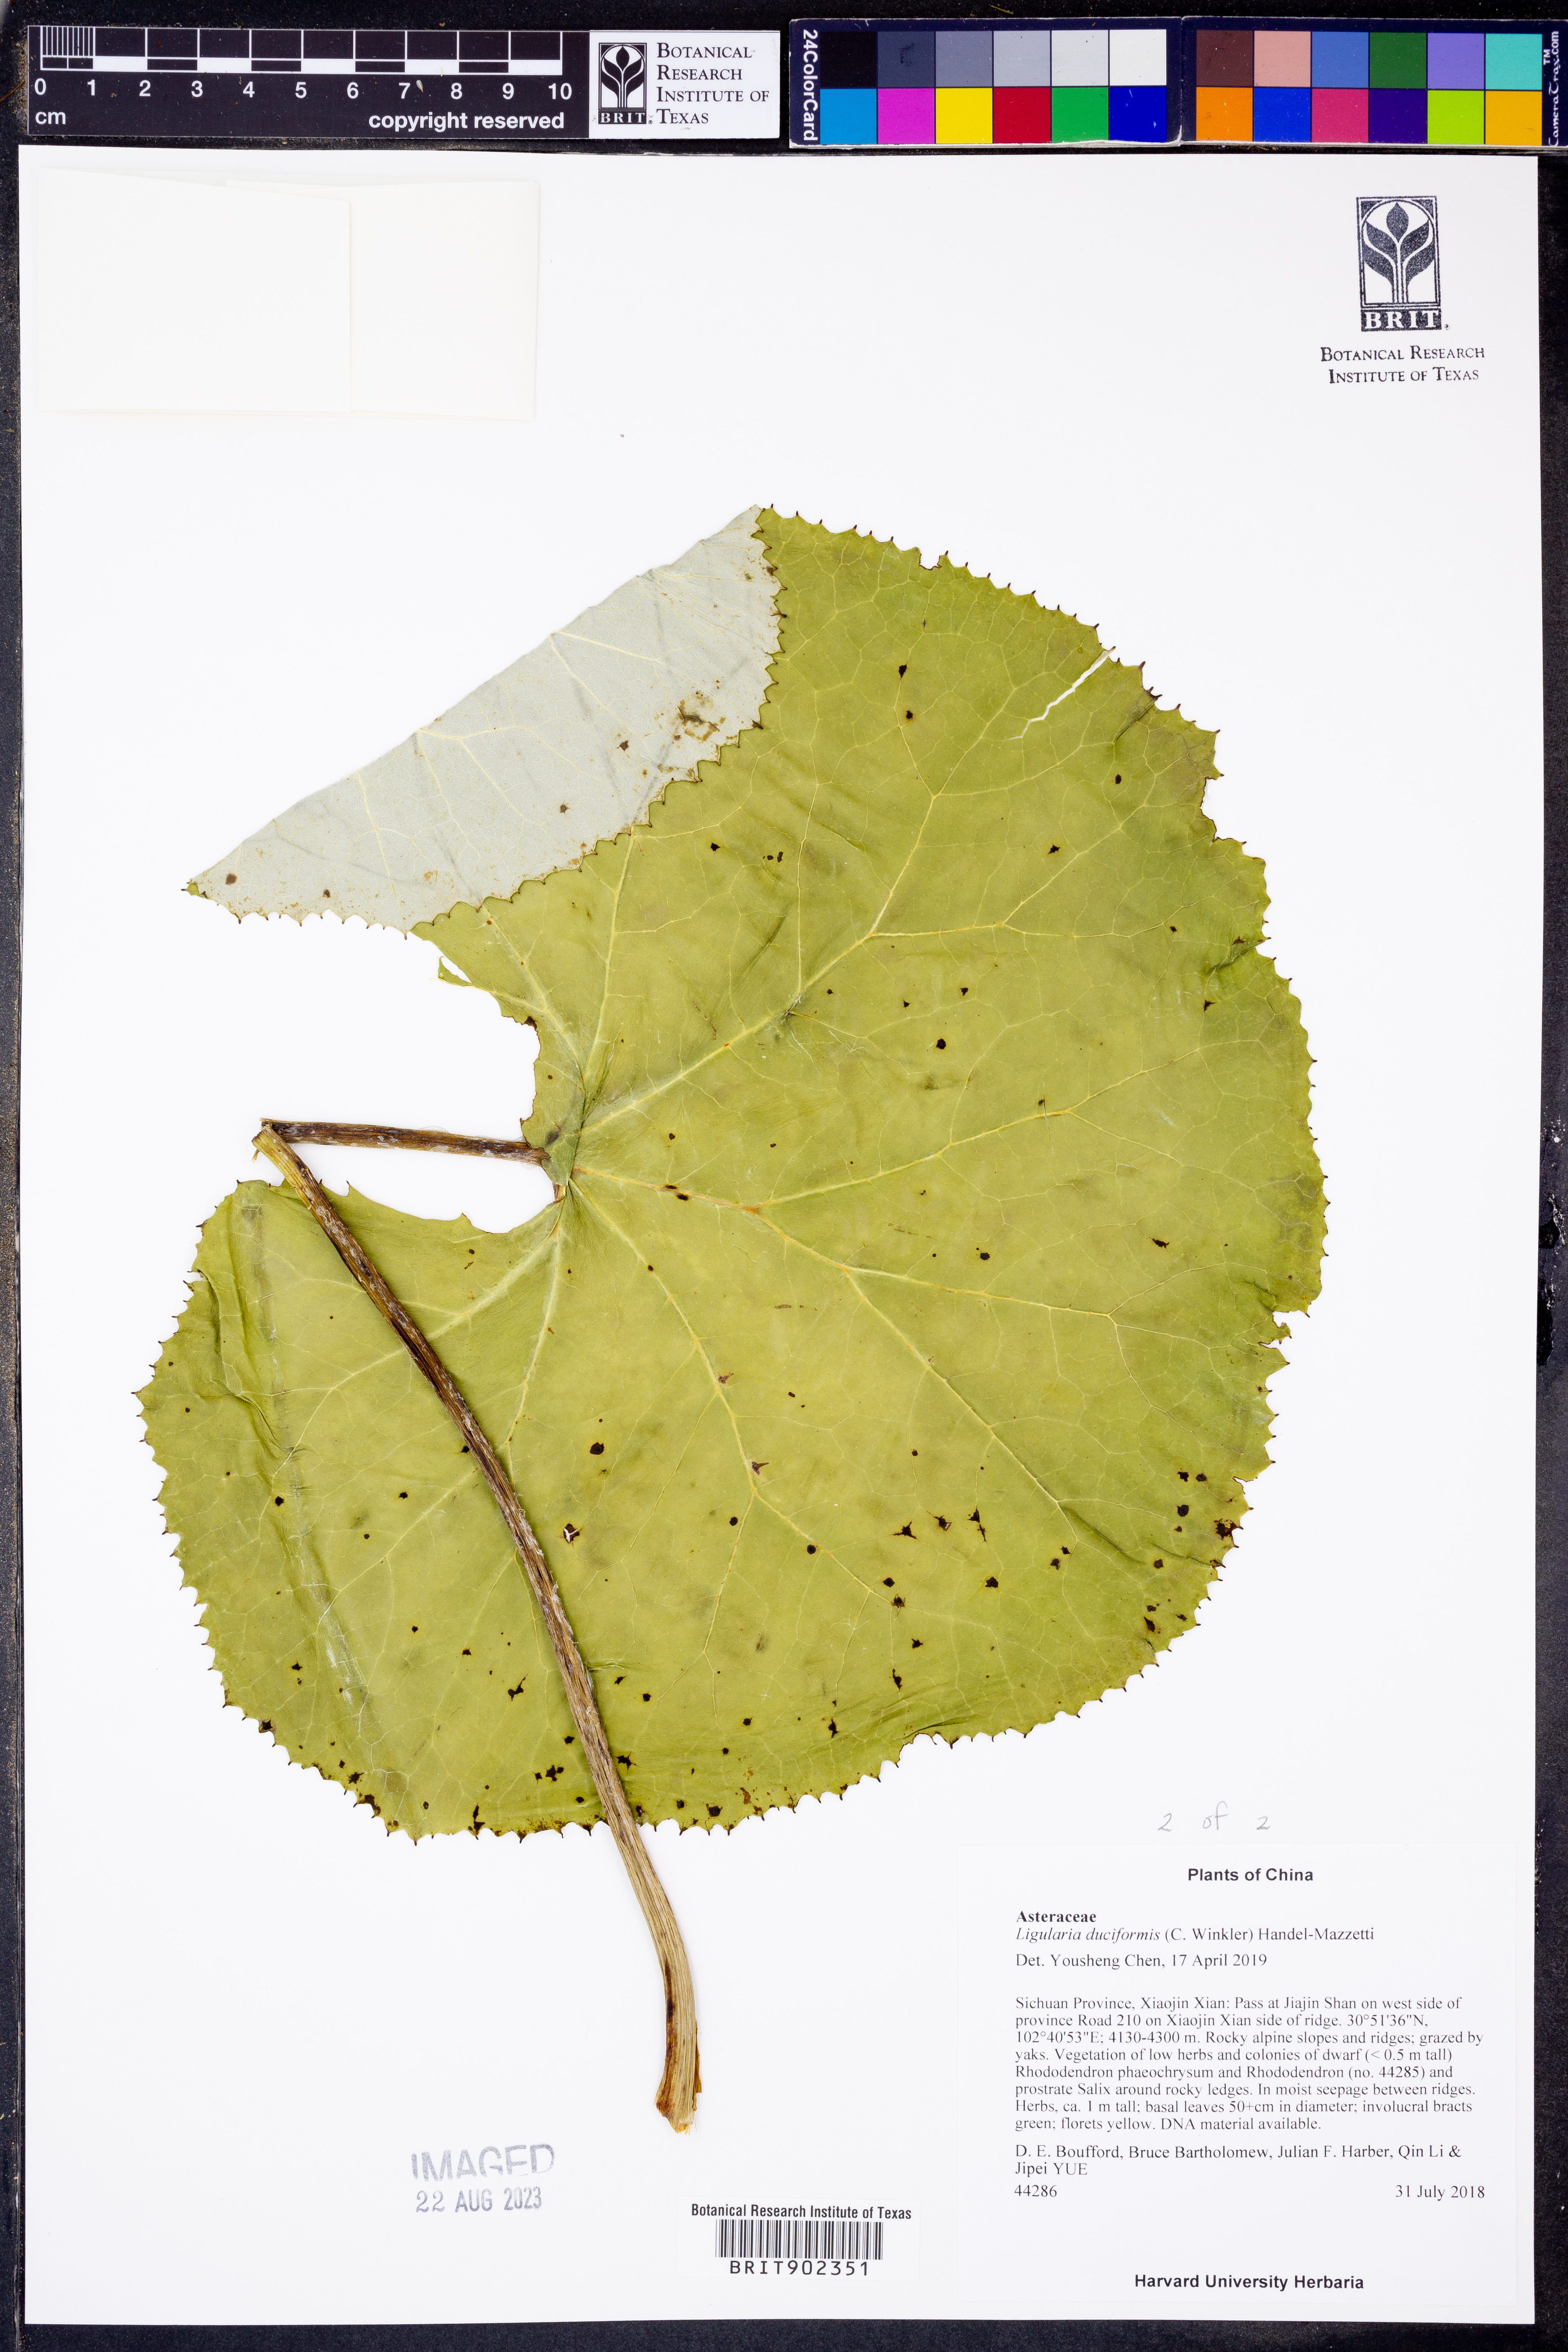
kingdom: Plantae
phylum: Tracheophyta
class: Magnoliopsida
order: Asterales
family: Asteraceae
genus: Ligularia
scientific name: Ligularia
